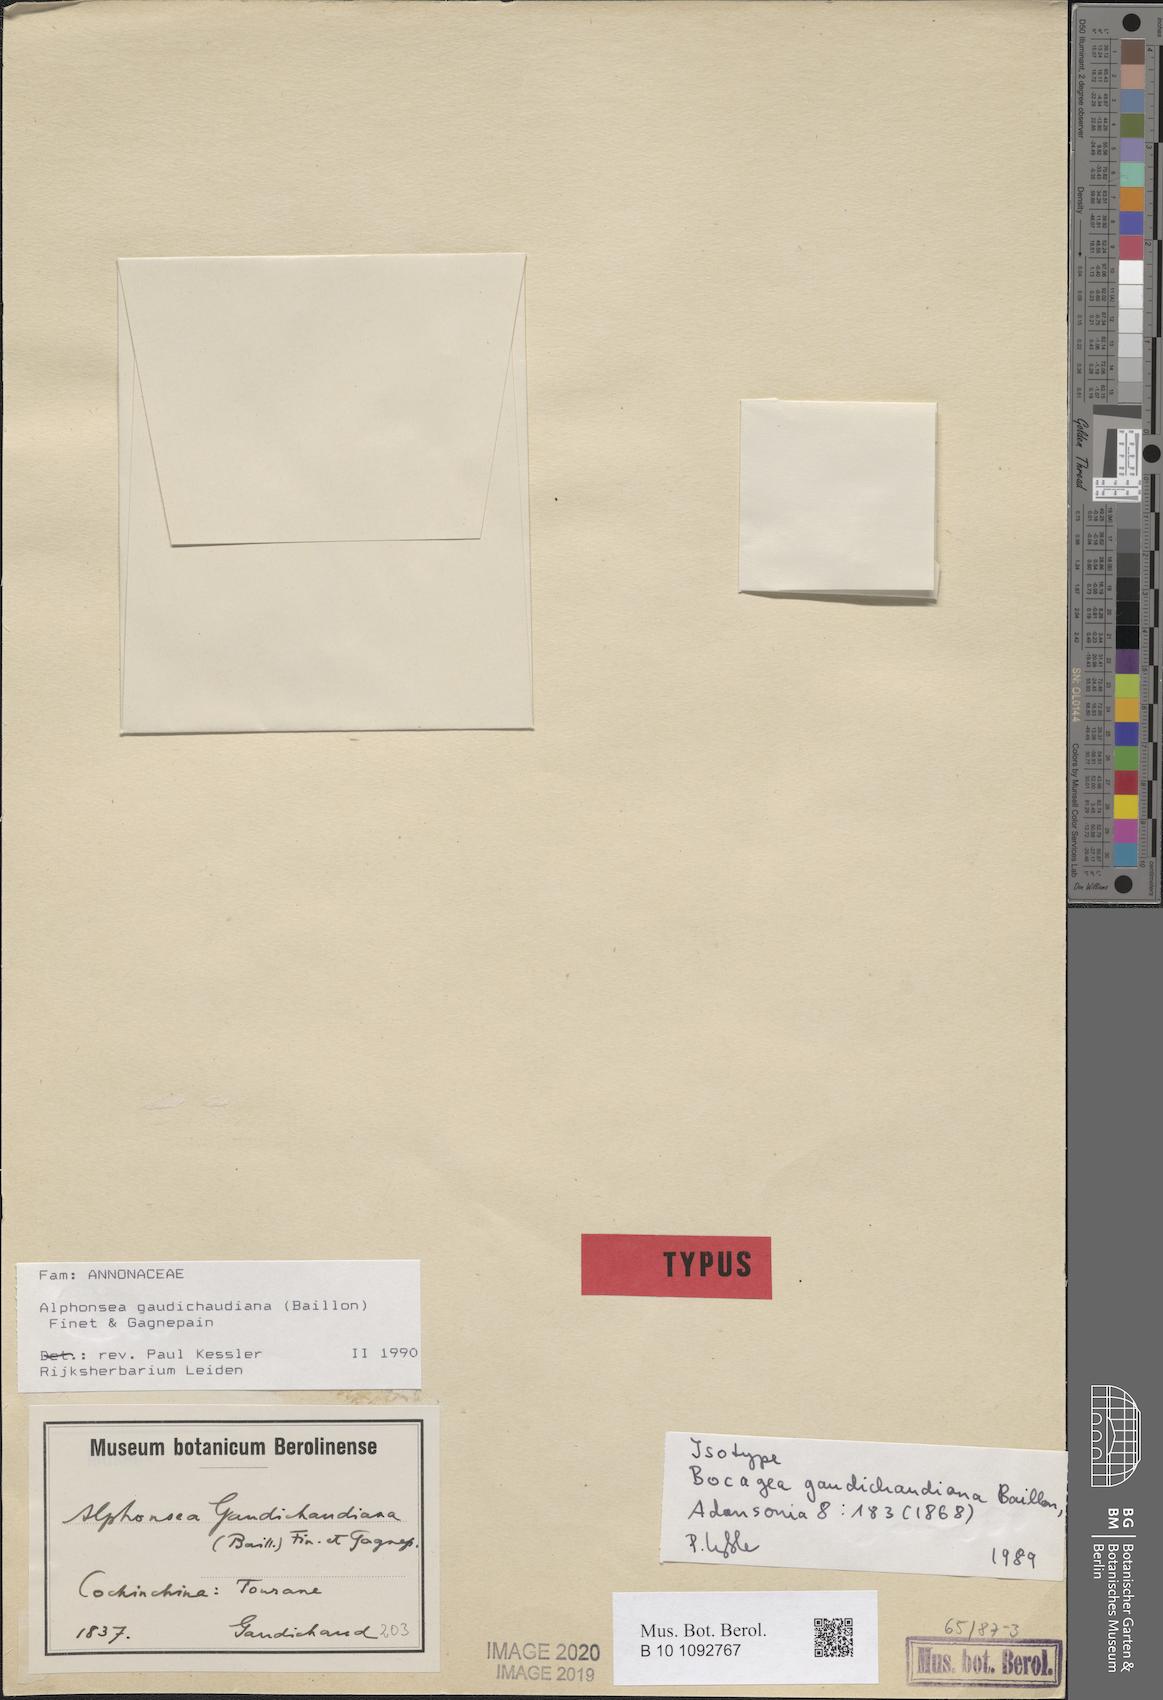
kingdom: Plantae
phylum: Tracheophyta
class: Magnoliopsida
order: Magnoliales
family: Annonaceae
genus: Alphonsea
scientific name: Alphonsea gaudichaudiana
